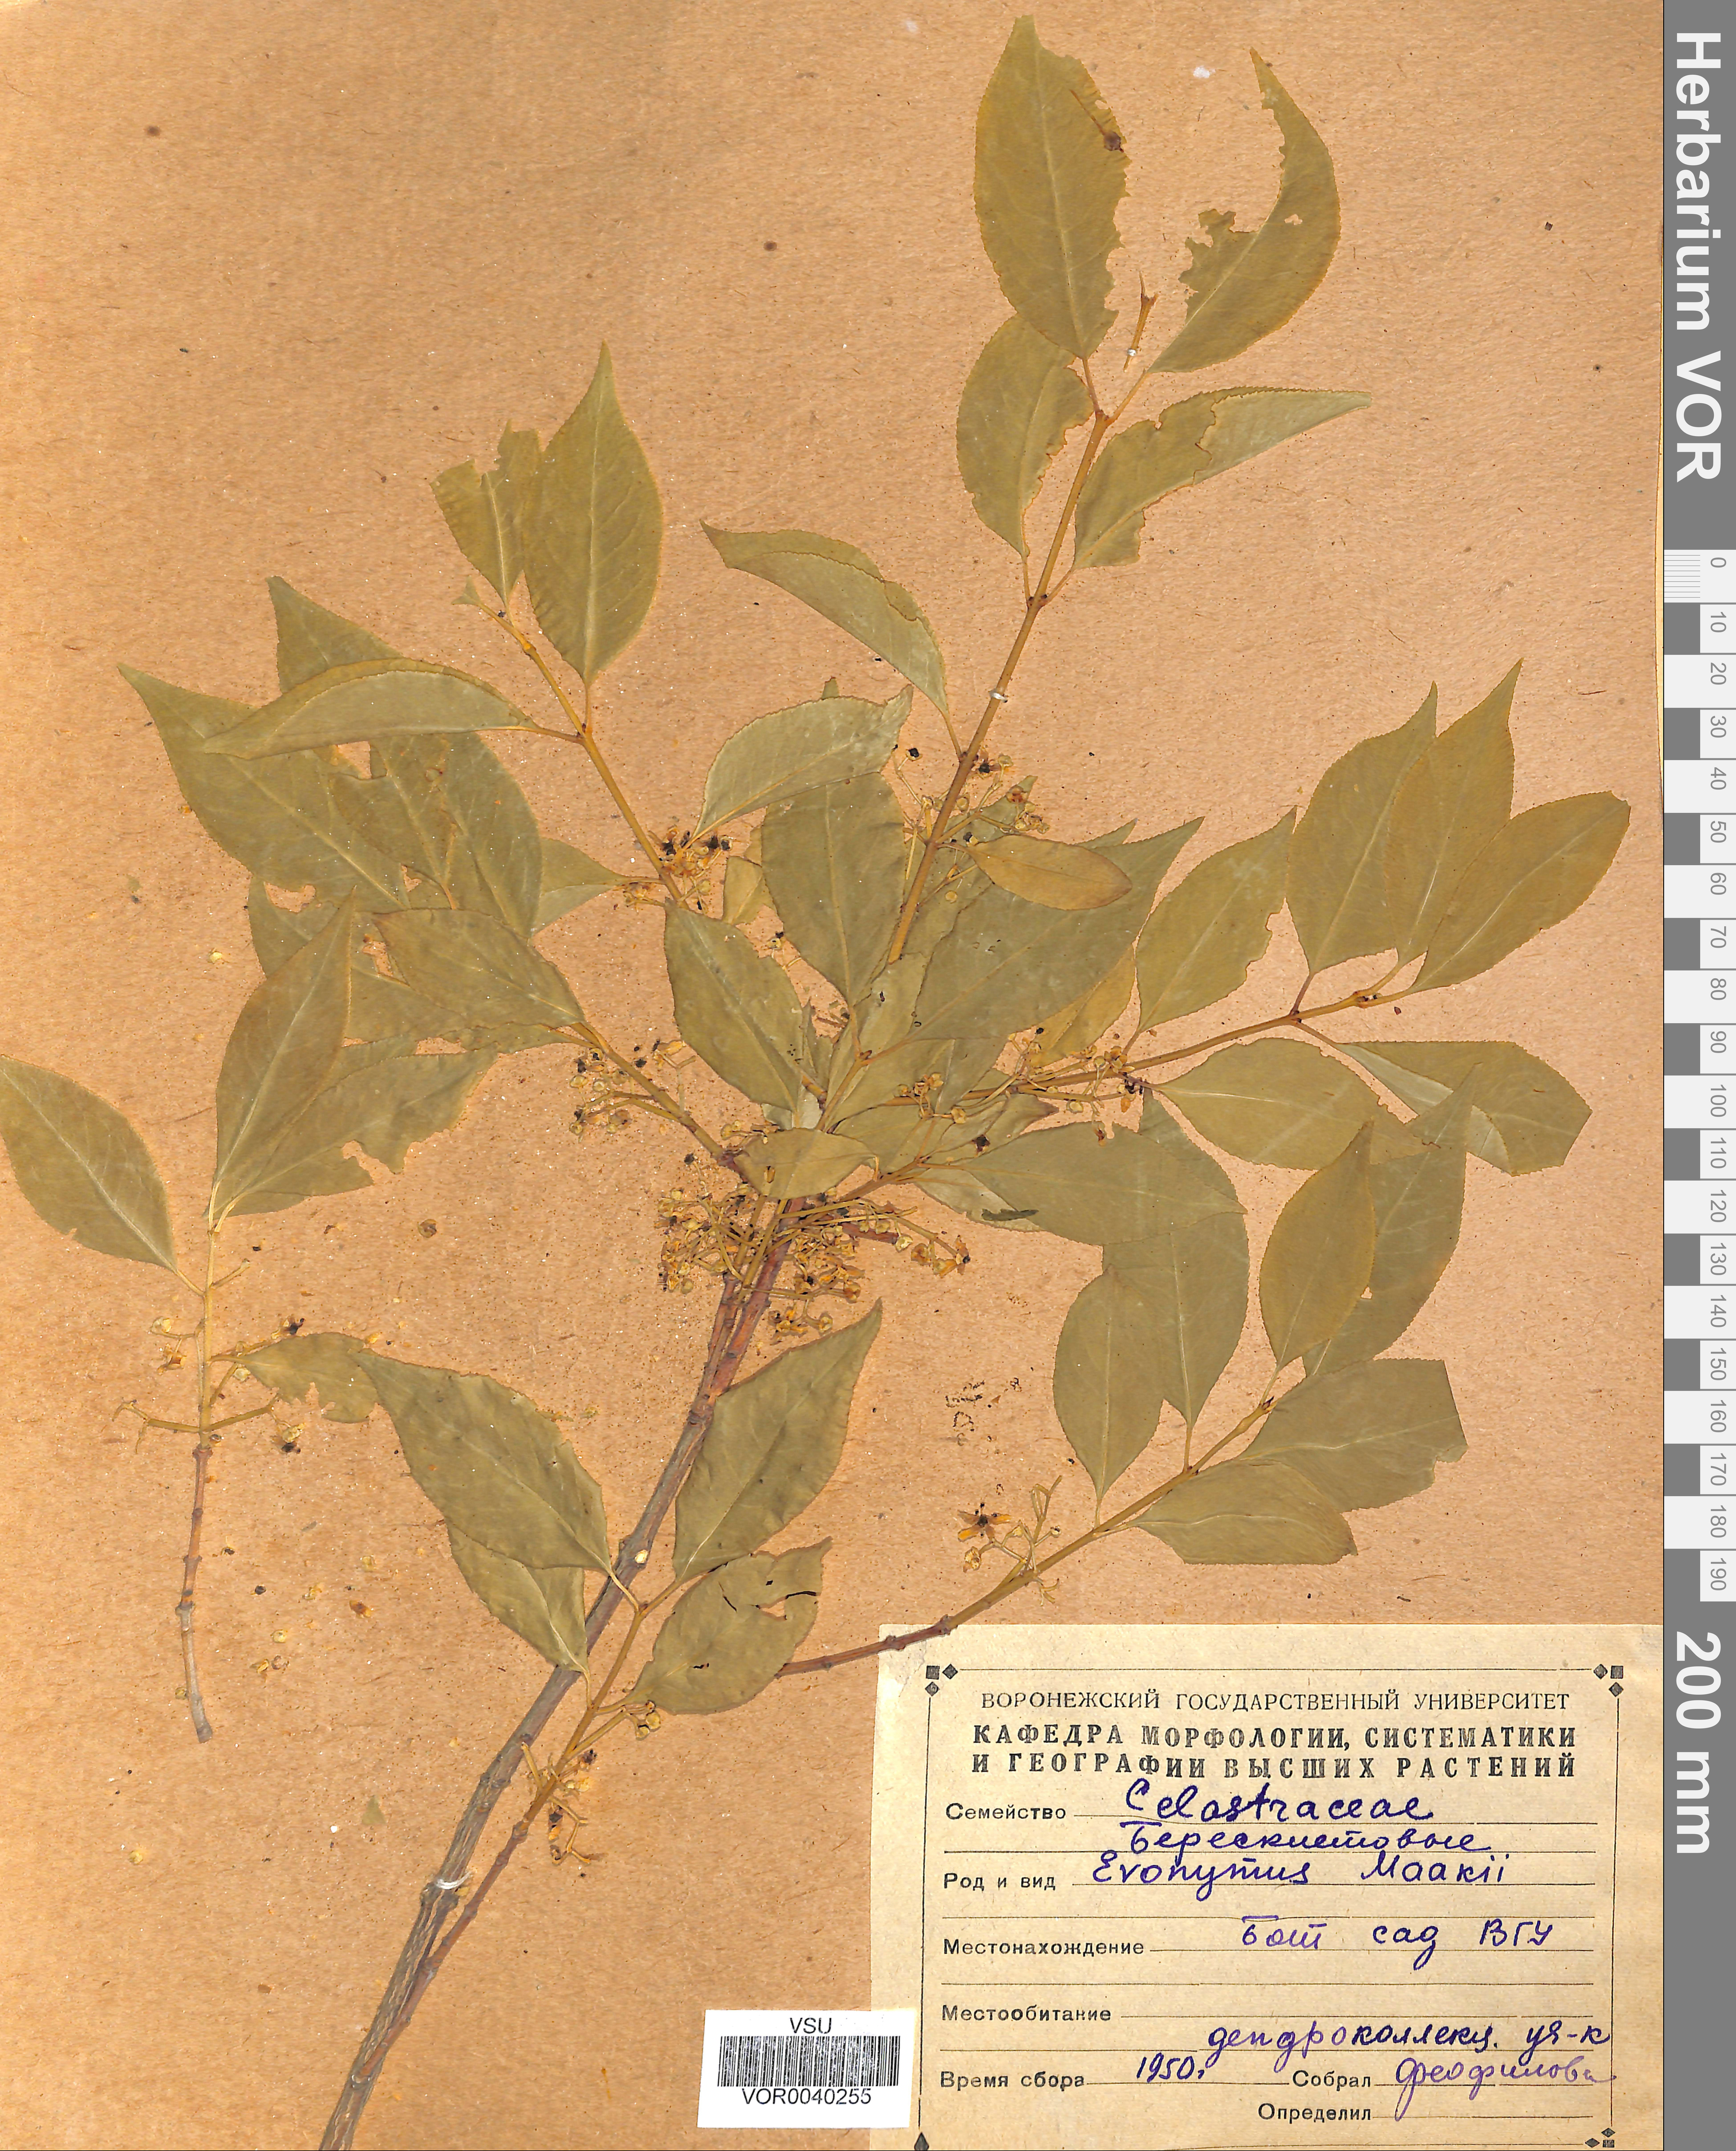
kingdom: Plantae
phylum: Tracheophyta
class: Magnoliopsida
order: Celastrales
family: Celastraceae
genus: Euonymus
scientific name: Euonymus maackii
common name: Hamilton's spindletree
